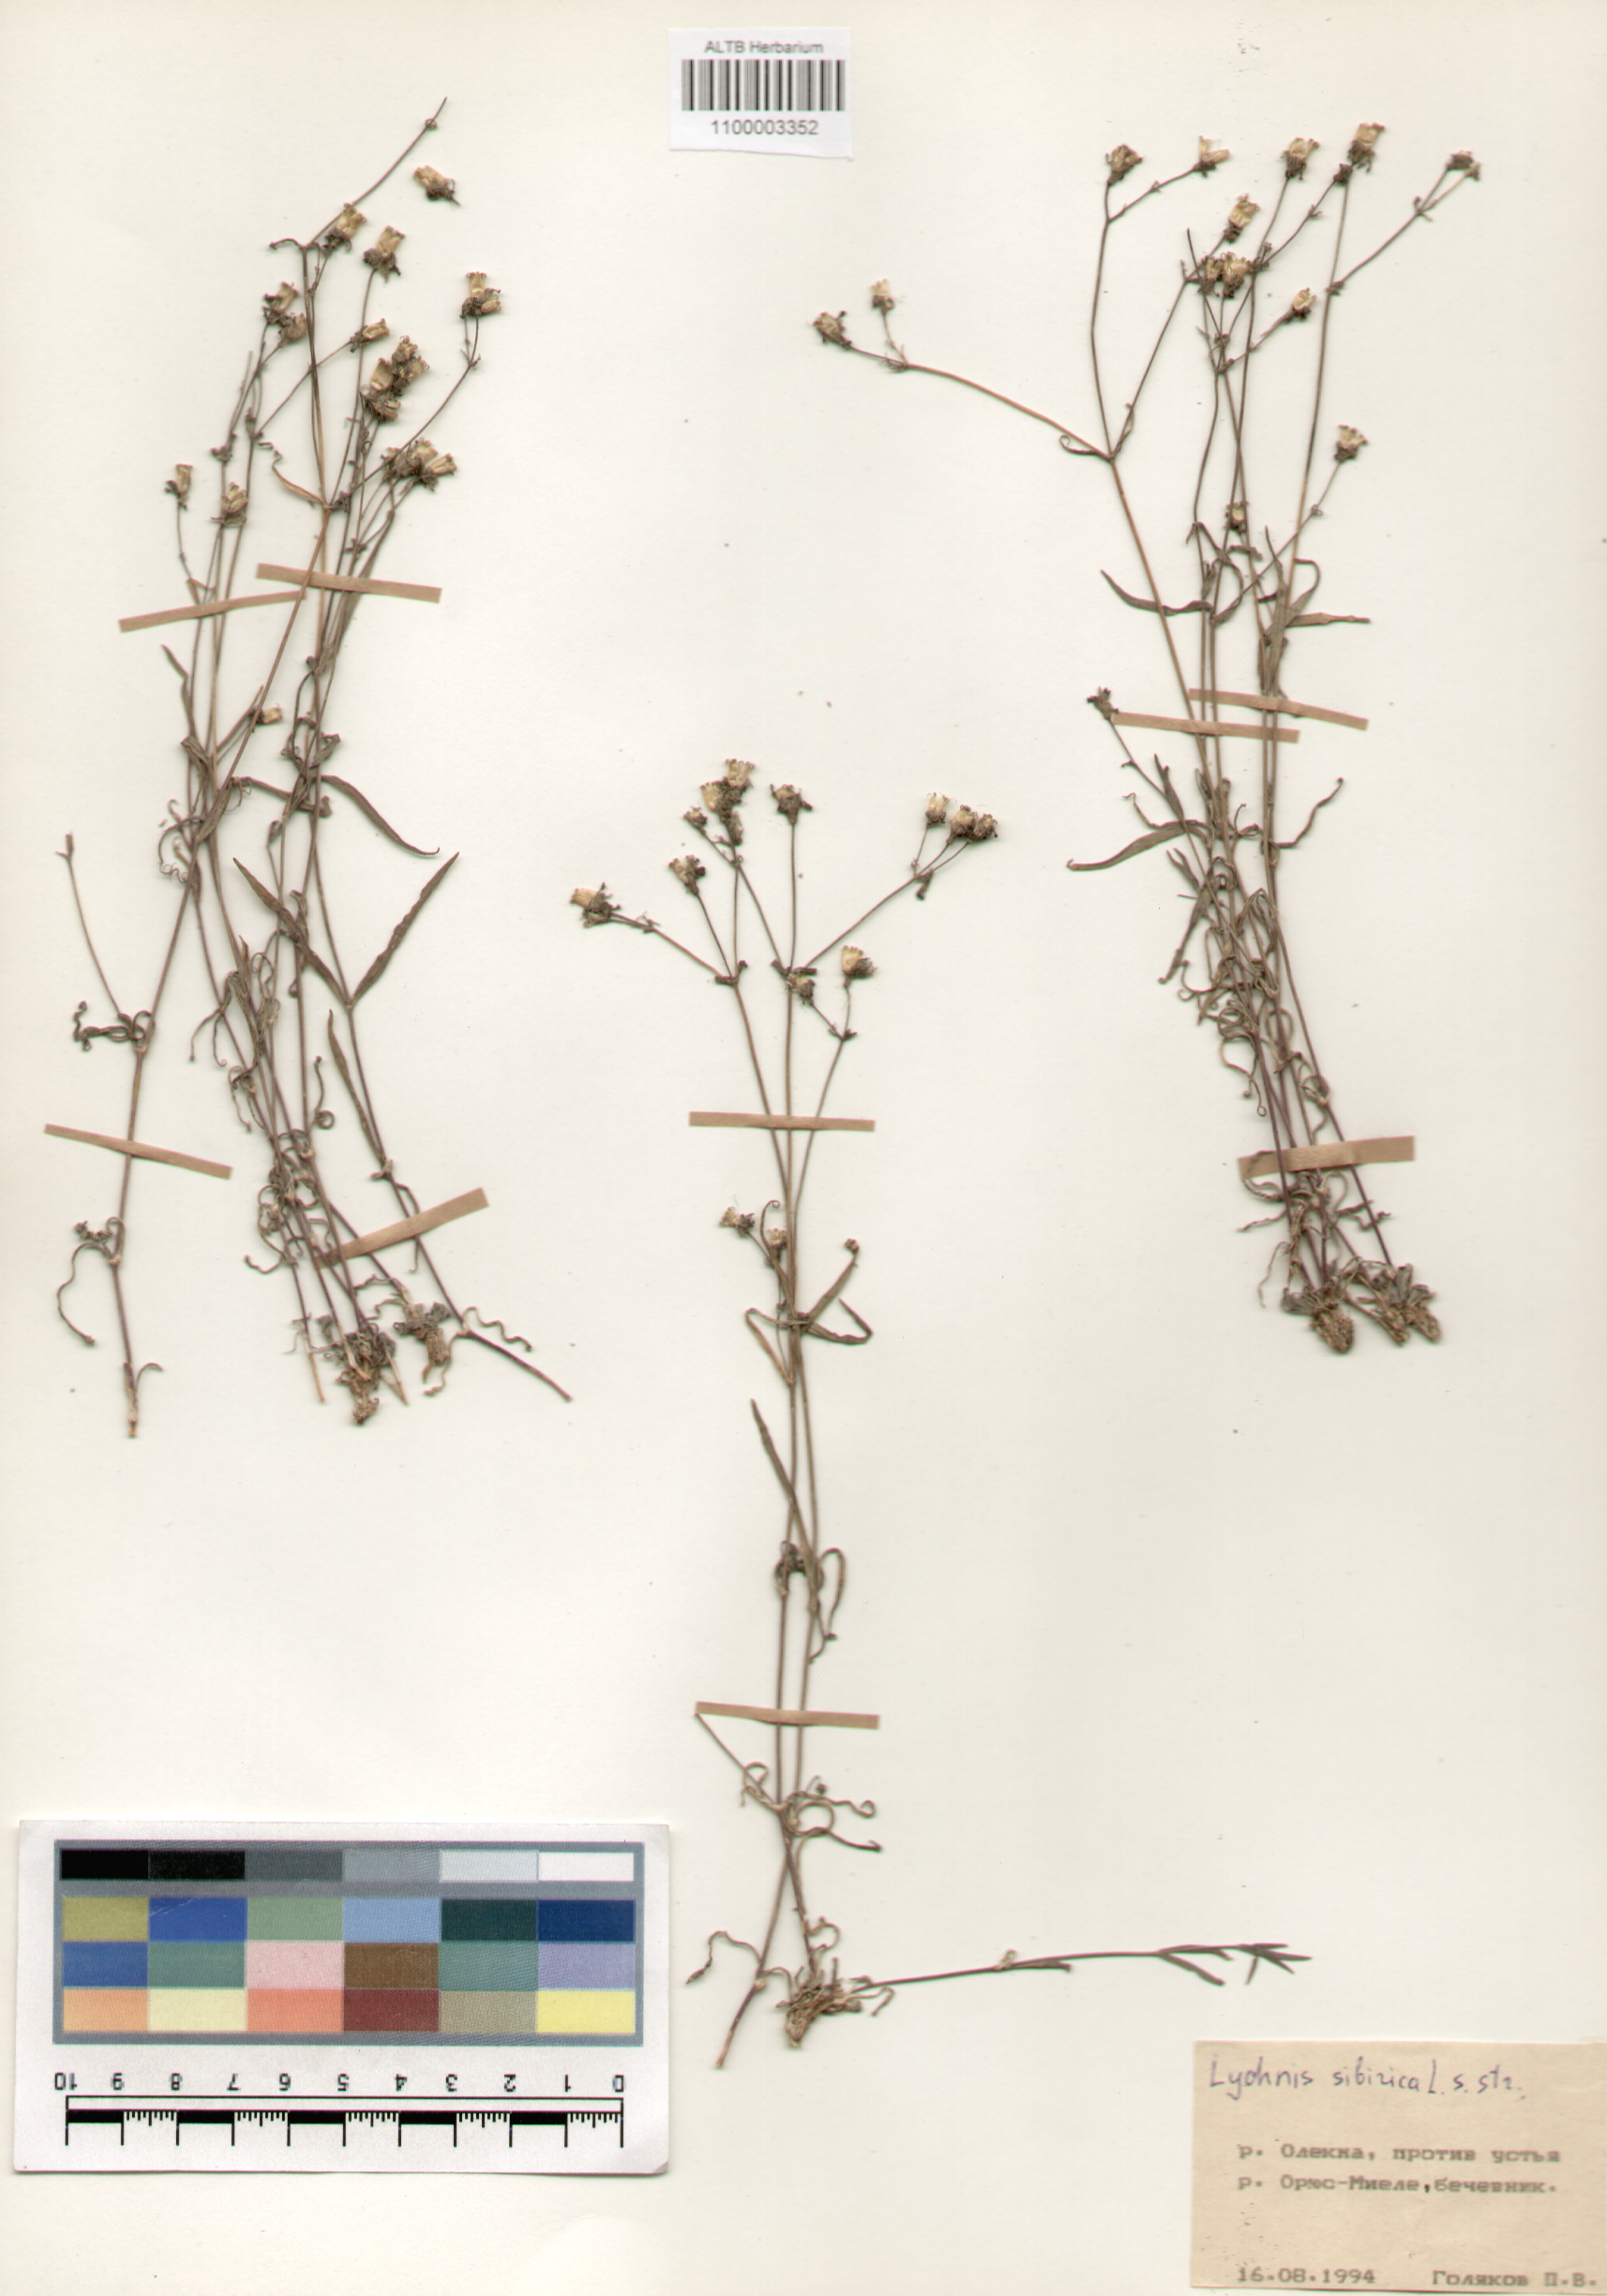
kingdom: Plantae
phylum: Tracheophyta
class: Magnoliopsida
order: Caryophyllales
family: Caryophyllaceae
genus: Silene
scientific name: Silene orientalimongolica
